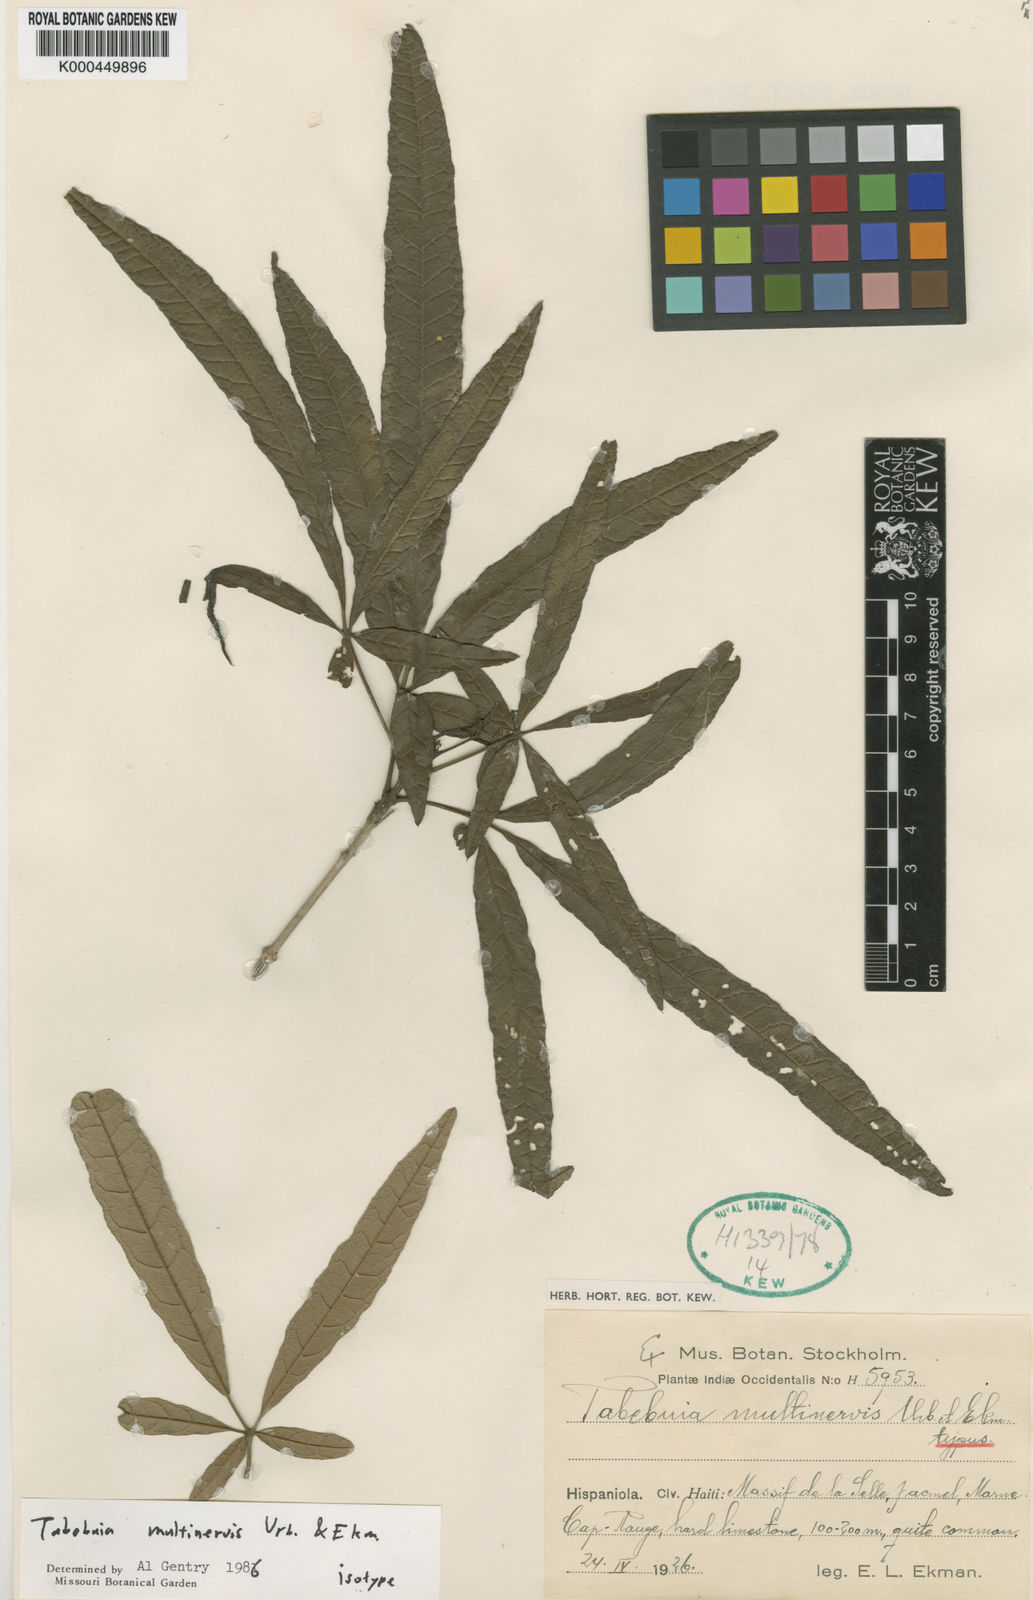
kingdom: Plantae
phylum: Tracheophyta
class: Magnoliopsida
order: Lamiales
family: Bignoniaceae
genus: Tabebuia
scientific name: Tabebuia multinervis
